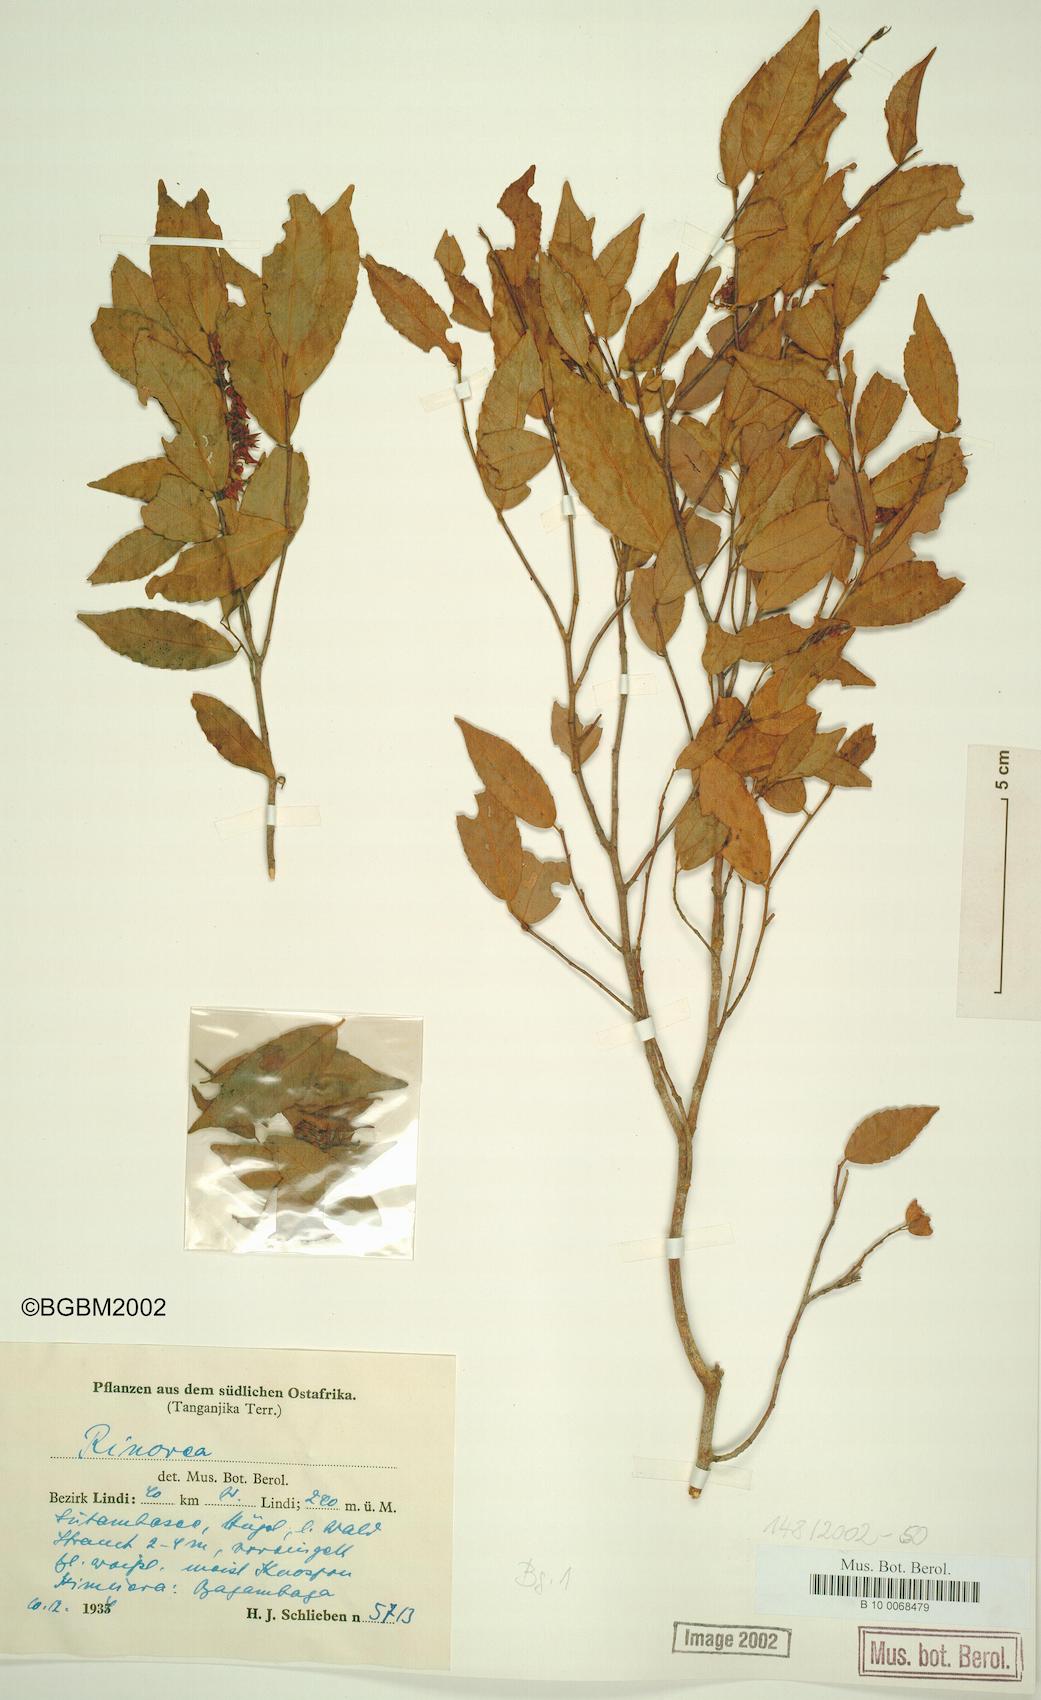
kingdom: Plantae
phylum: Tracheophyta
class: Magnoliopsida
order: Malpighiales
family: Violaceae
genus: Rinorea
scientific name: Rinorea
